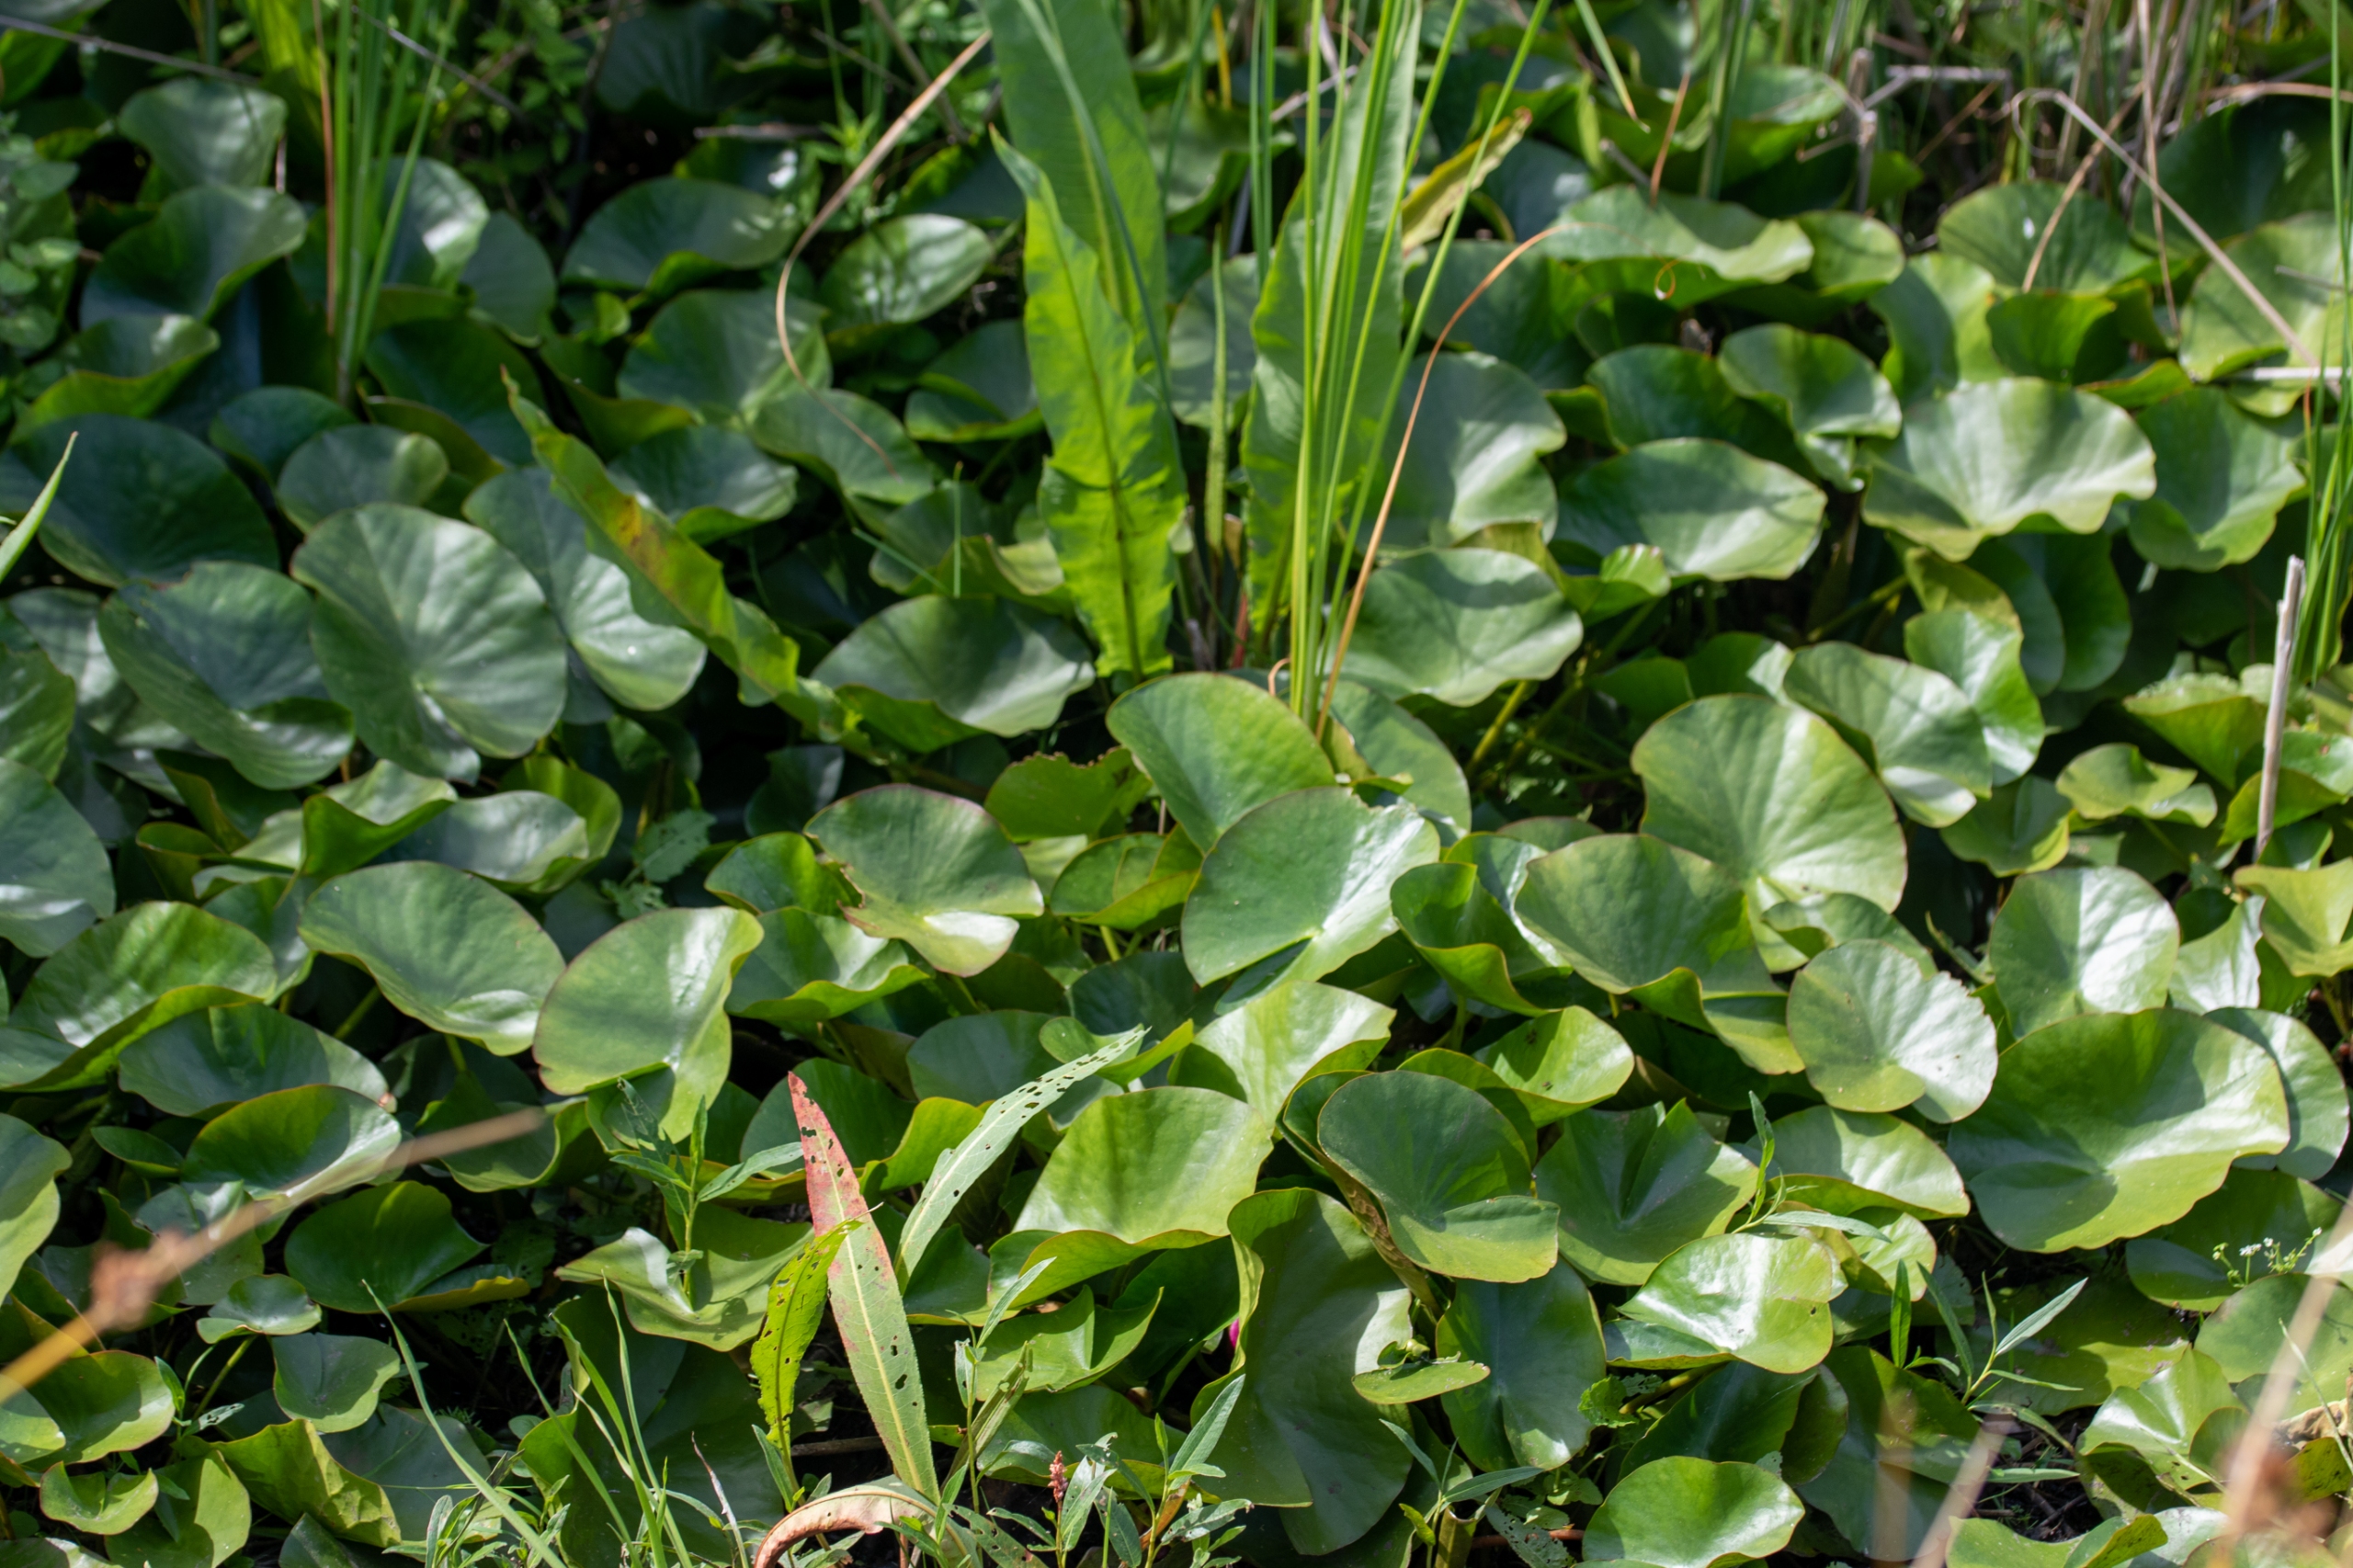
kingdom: Plantae
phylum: Tracheophyta
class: Magnoliopsida
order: Nymphaeales
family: Nymphaeaceae
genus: Nymphaea
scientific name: Nymphaea
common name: Nøkkeroseslægten
